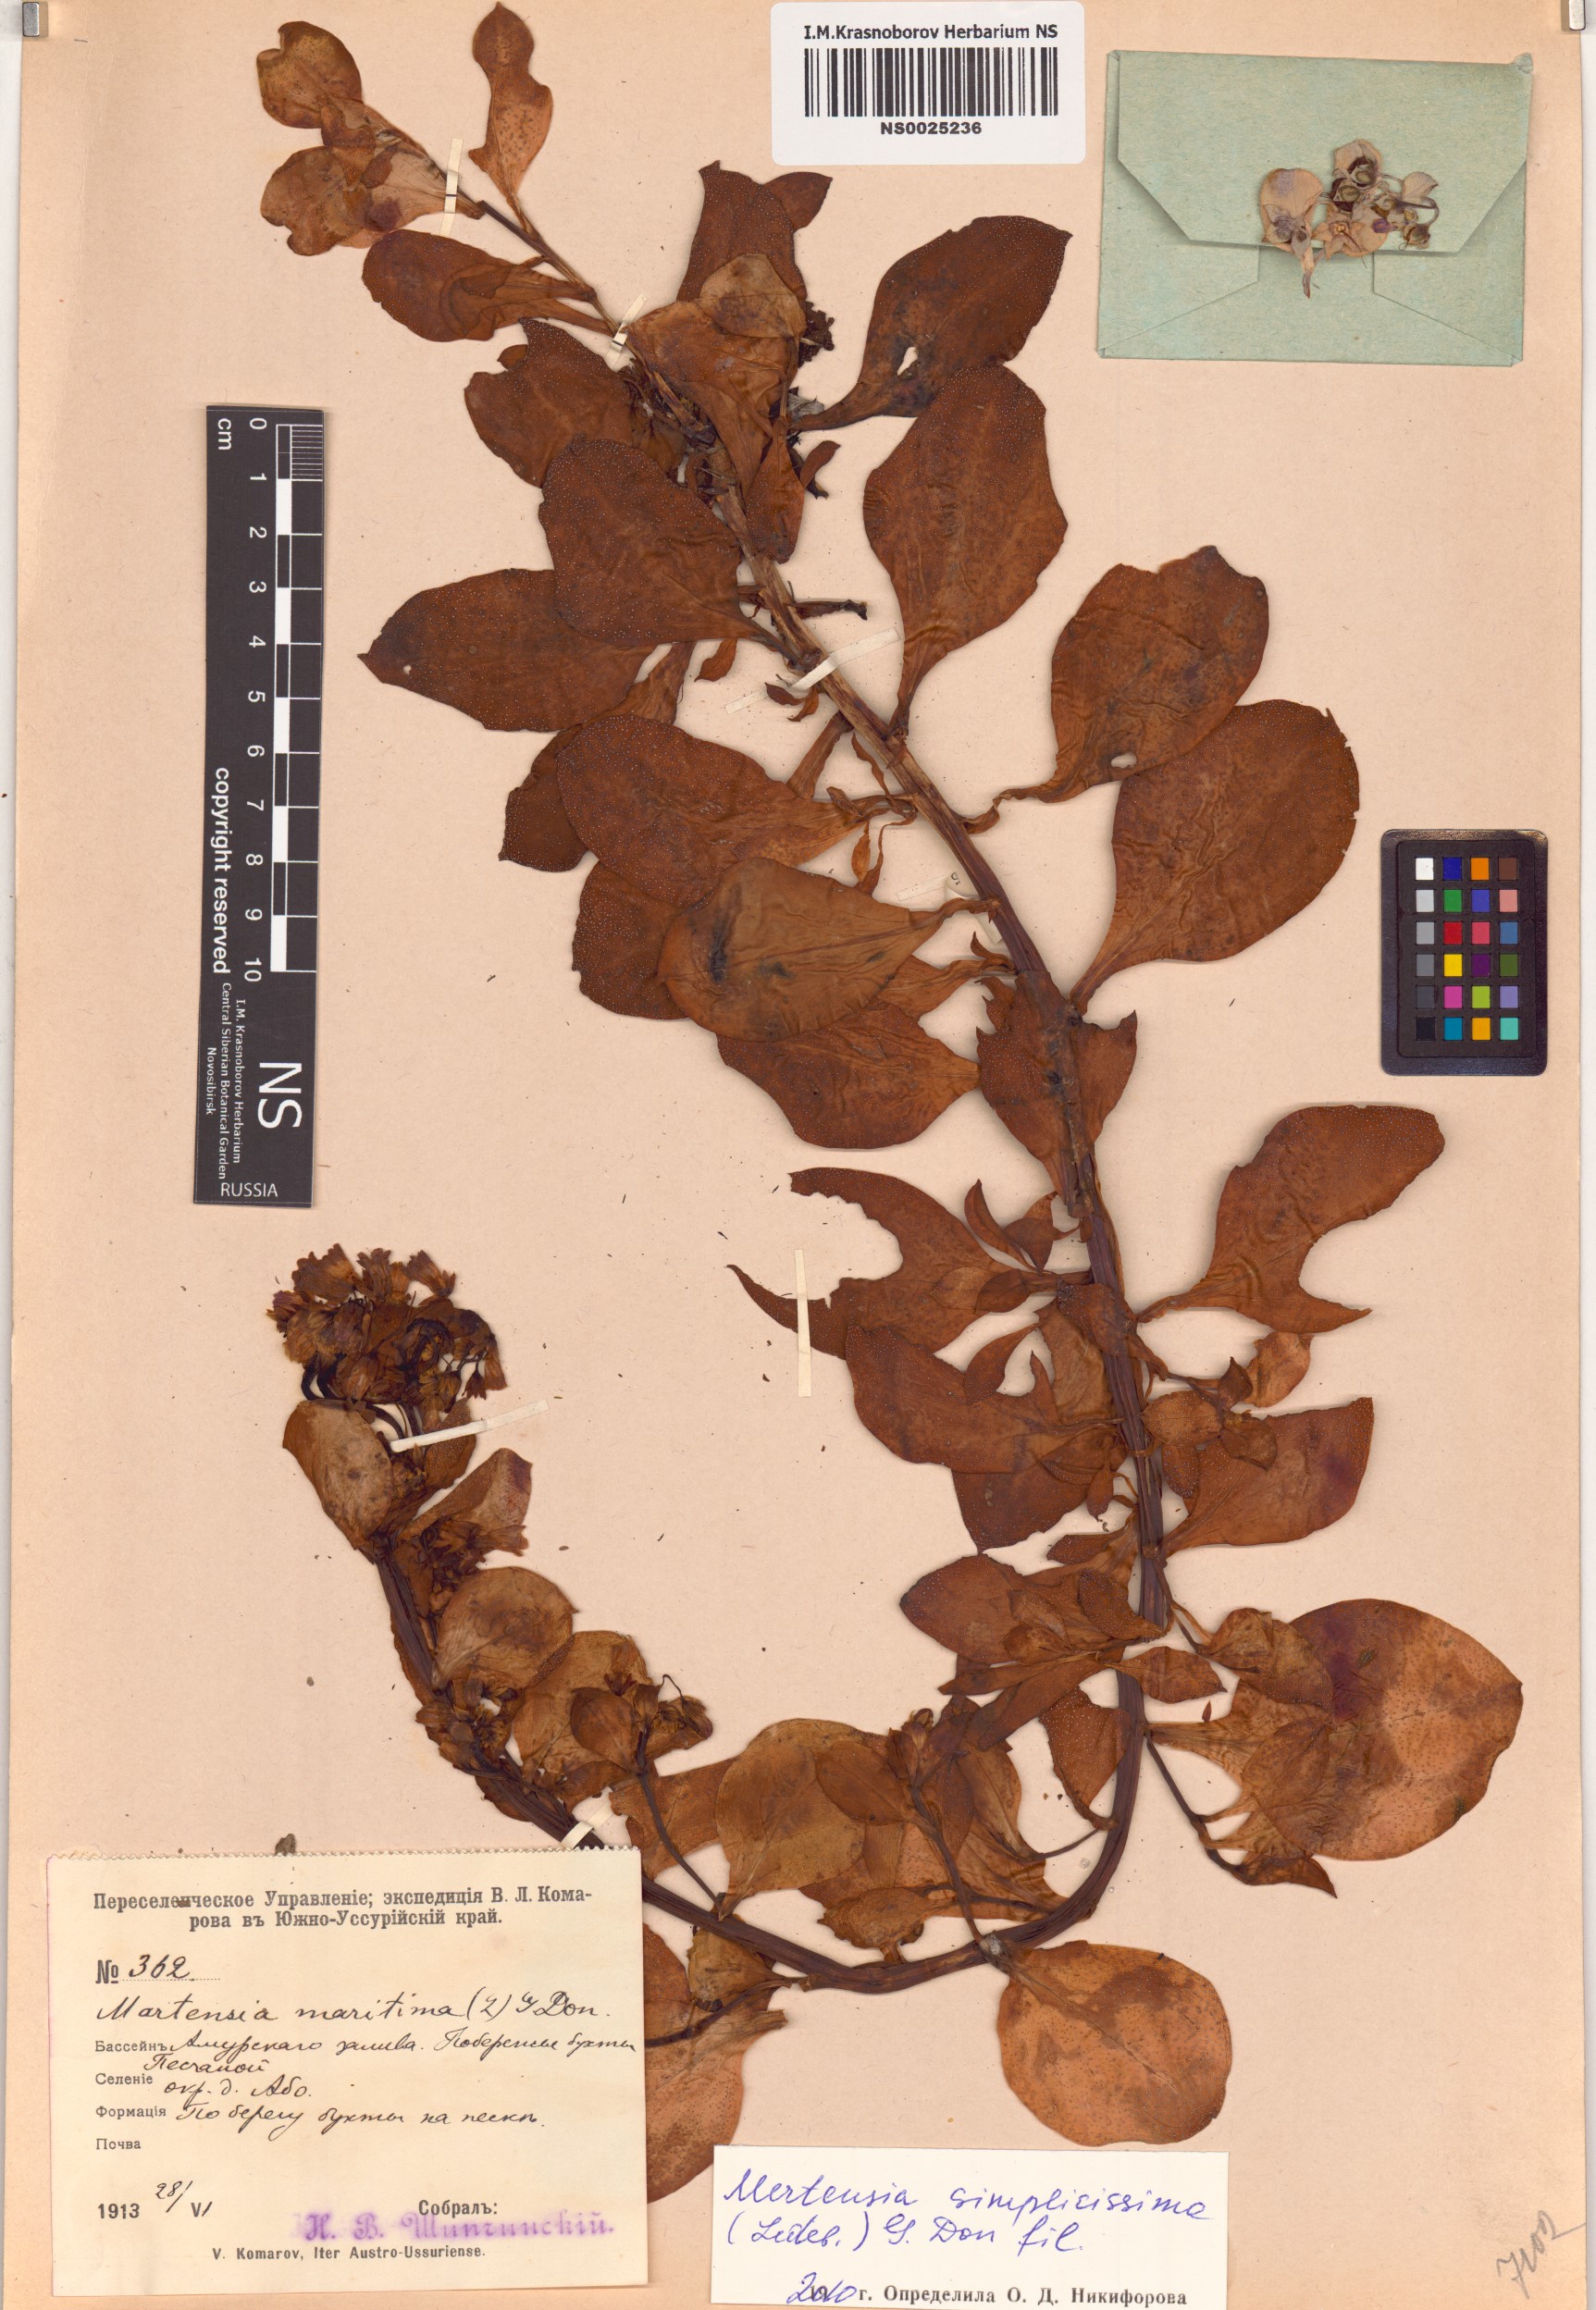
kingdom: Plantae
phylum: Tracheophyta
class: Magnoliopsida
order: Boraginales
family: Boraginaceae
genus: Mertensia
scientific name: Mertensia simplicissima
